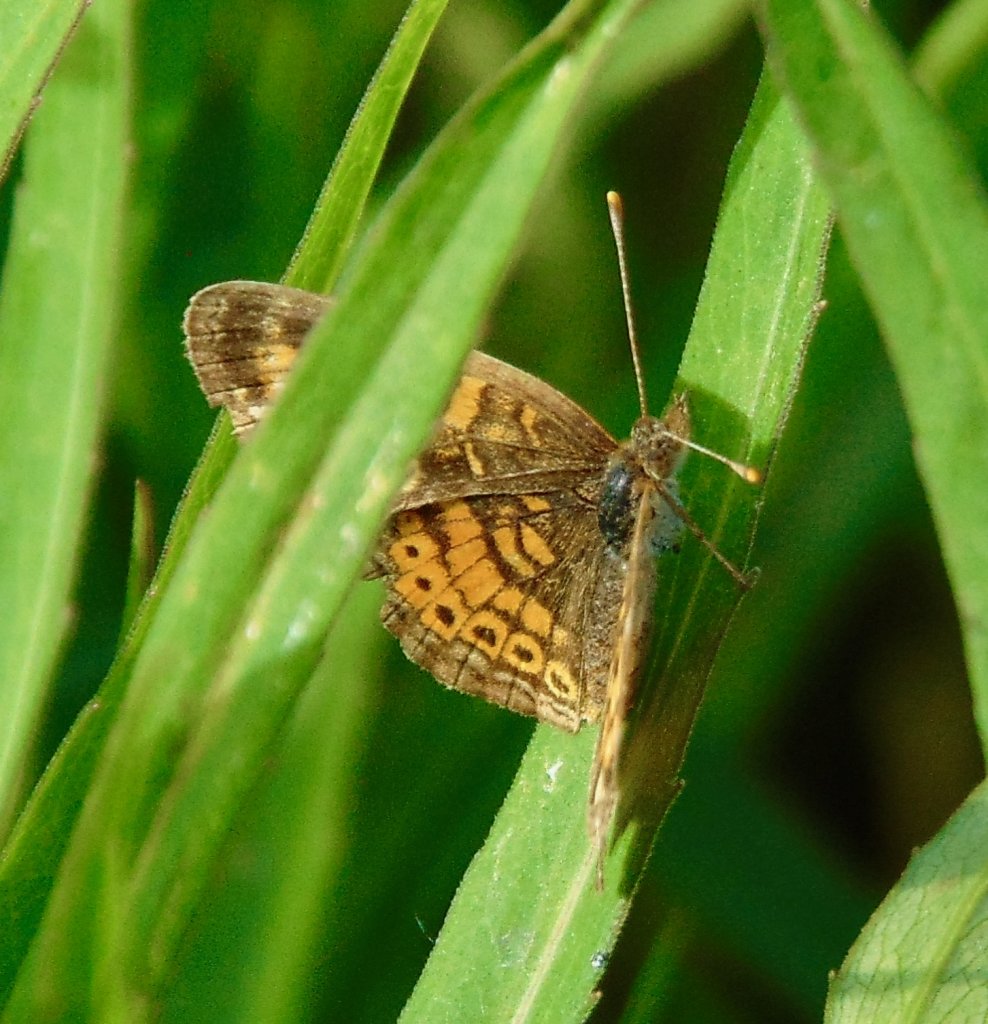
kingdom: Animalia
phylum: Arthropoda
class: Insecta
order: Lepidoptera
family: Nymphalidae
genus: Phyciodes
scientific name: Phyciodes tharos
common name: Pearl Crescent
